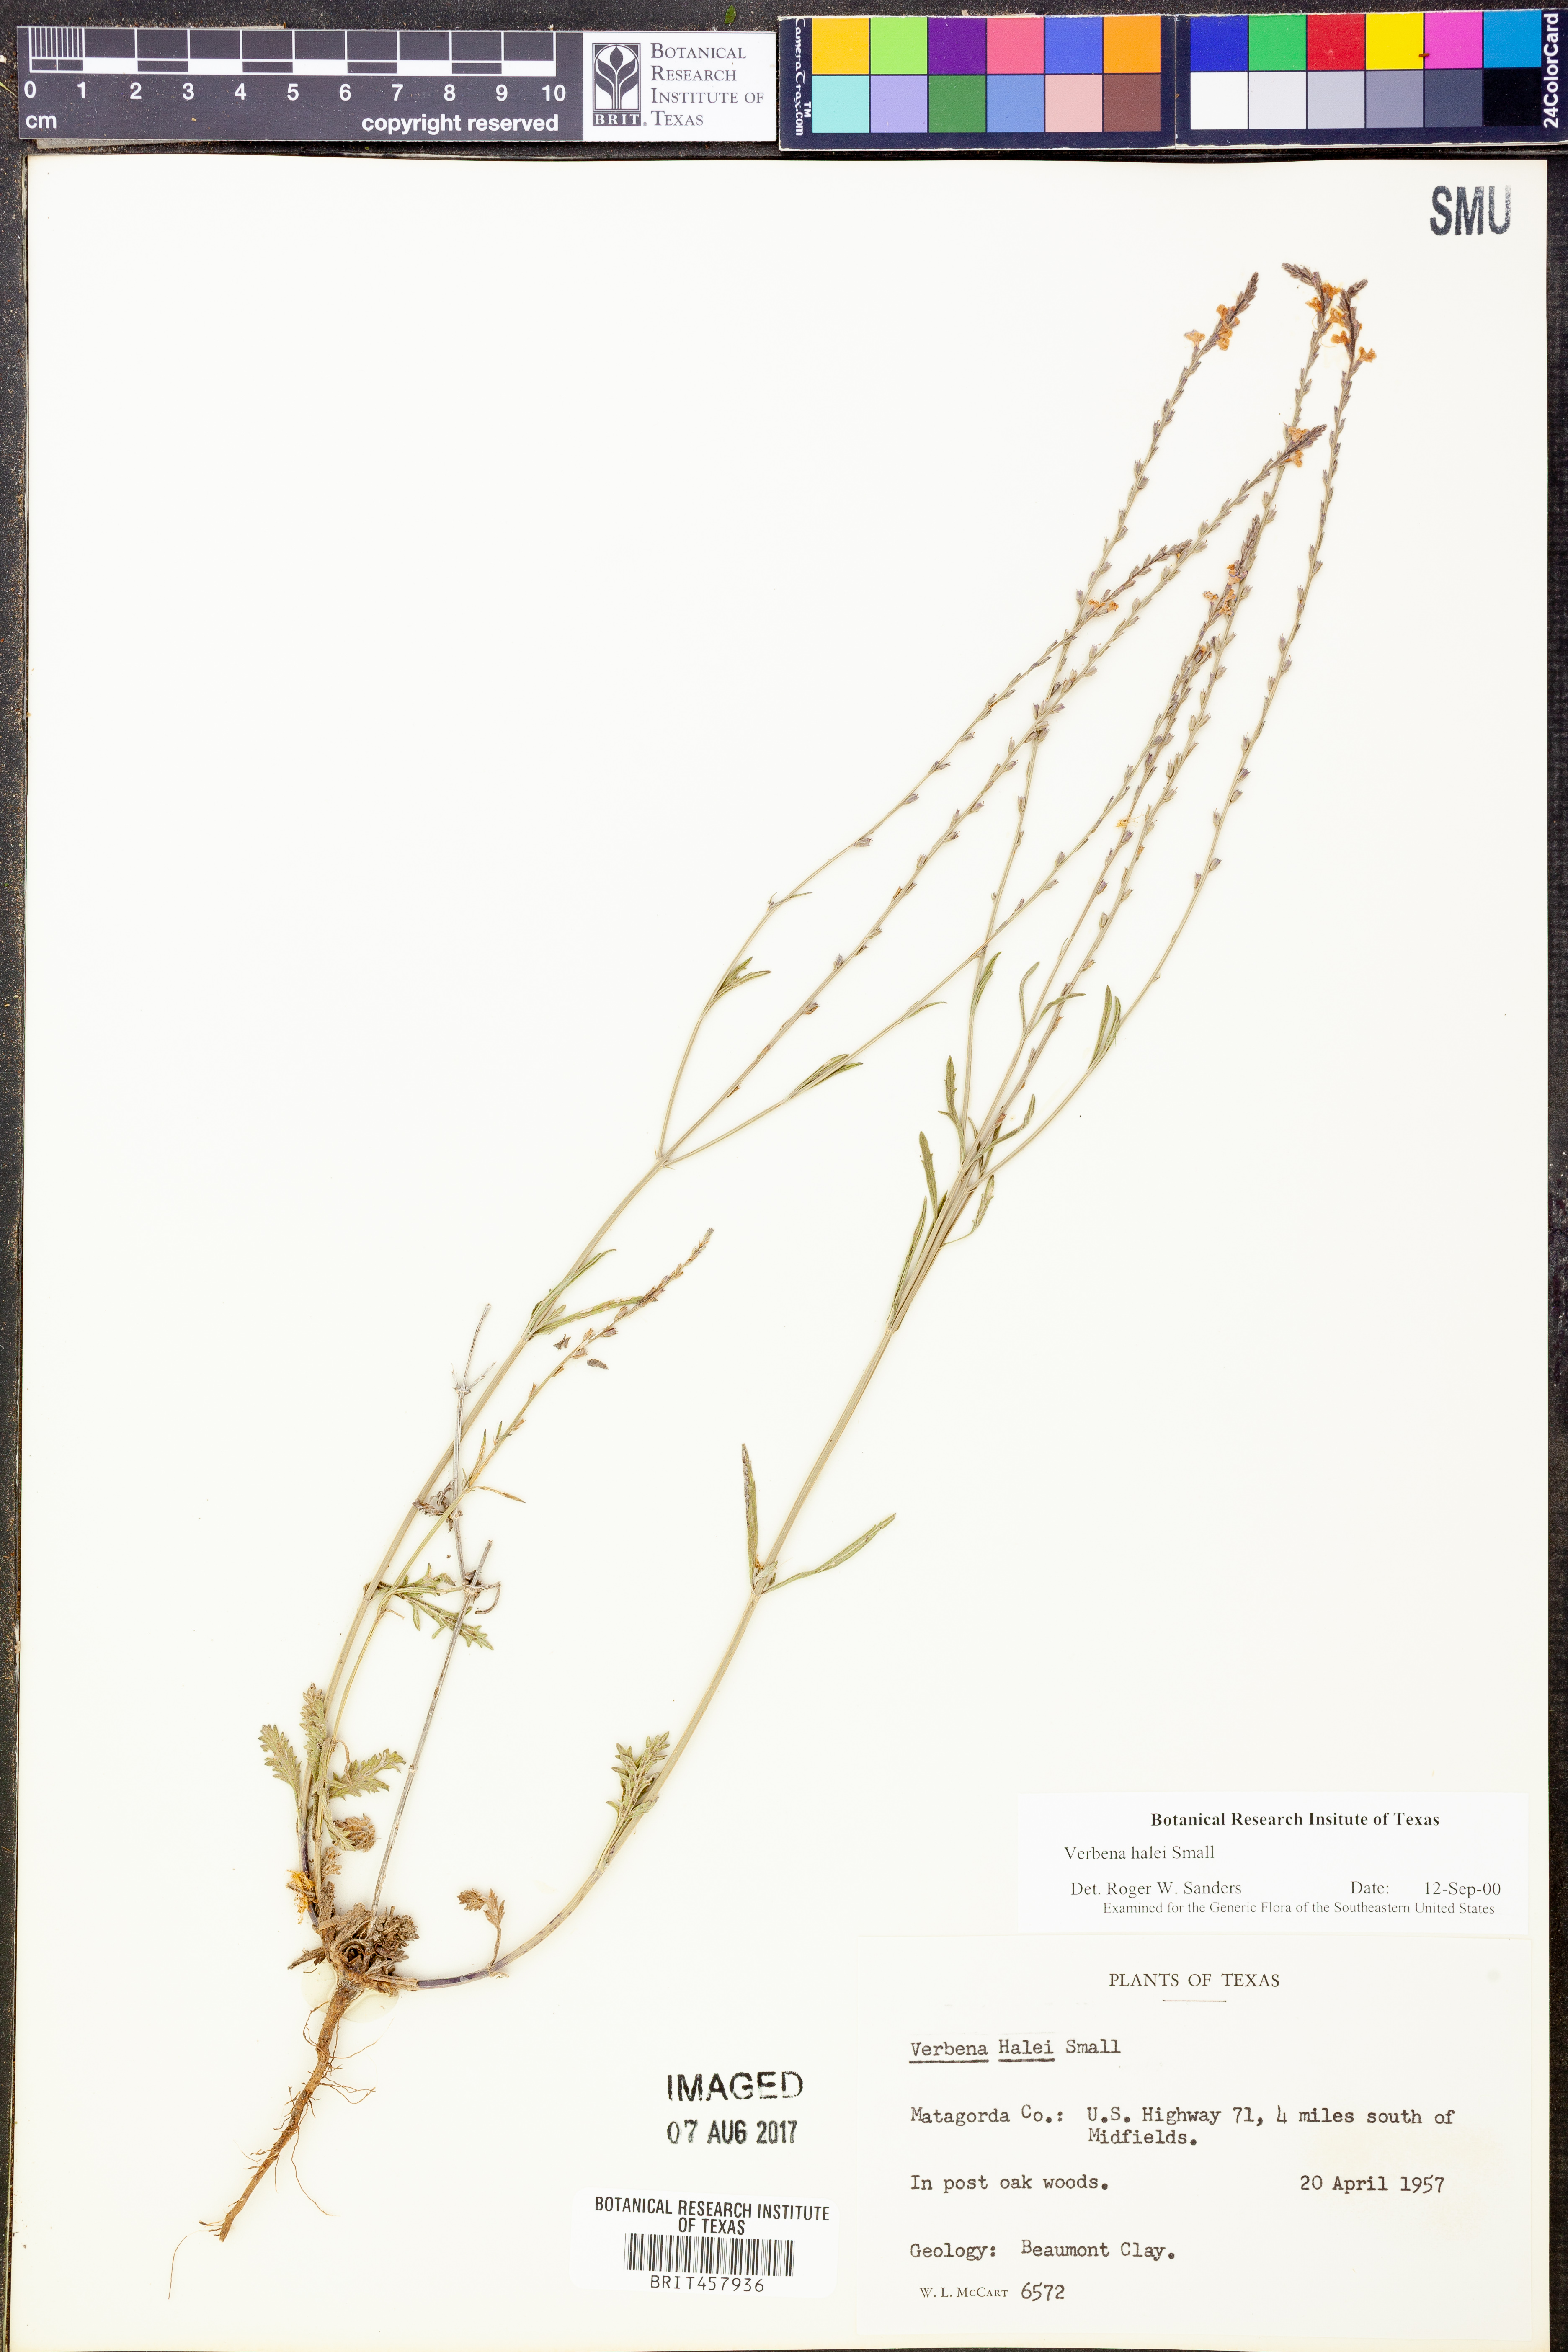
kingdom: Plantae
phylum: Tracheophyta
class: Magnoliopsida
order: Lamiales
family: Verbenaceae
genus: Verbena
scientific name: Verbena halei
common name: Texas vervain
